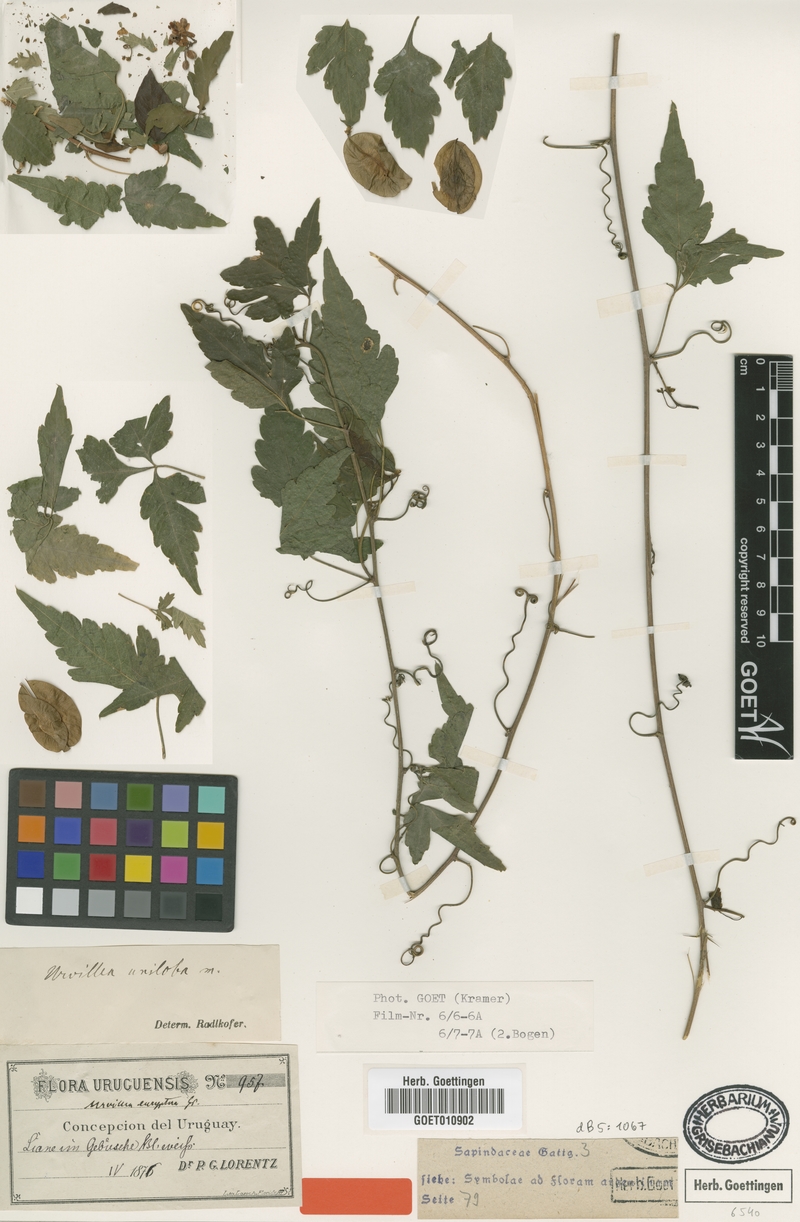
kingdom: Plantae
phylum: Tracheophyta
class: Magnoliopsida
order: Sapindales
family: Sapindaceae
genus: Urvillea
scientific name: Urvillea uniloba
